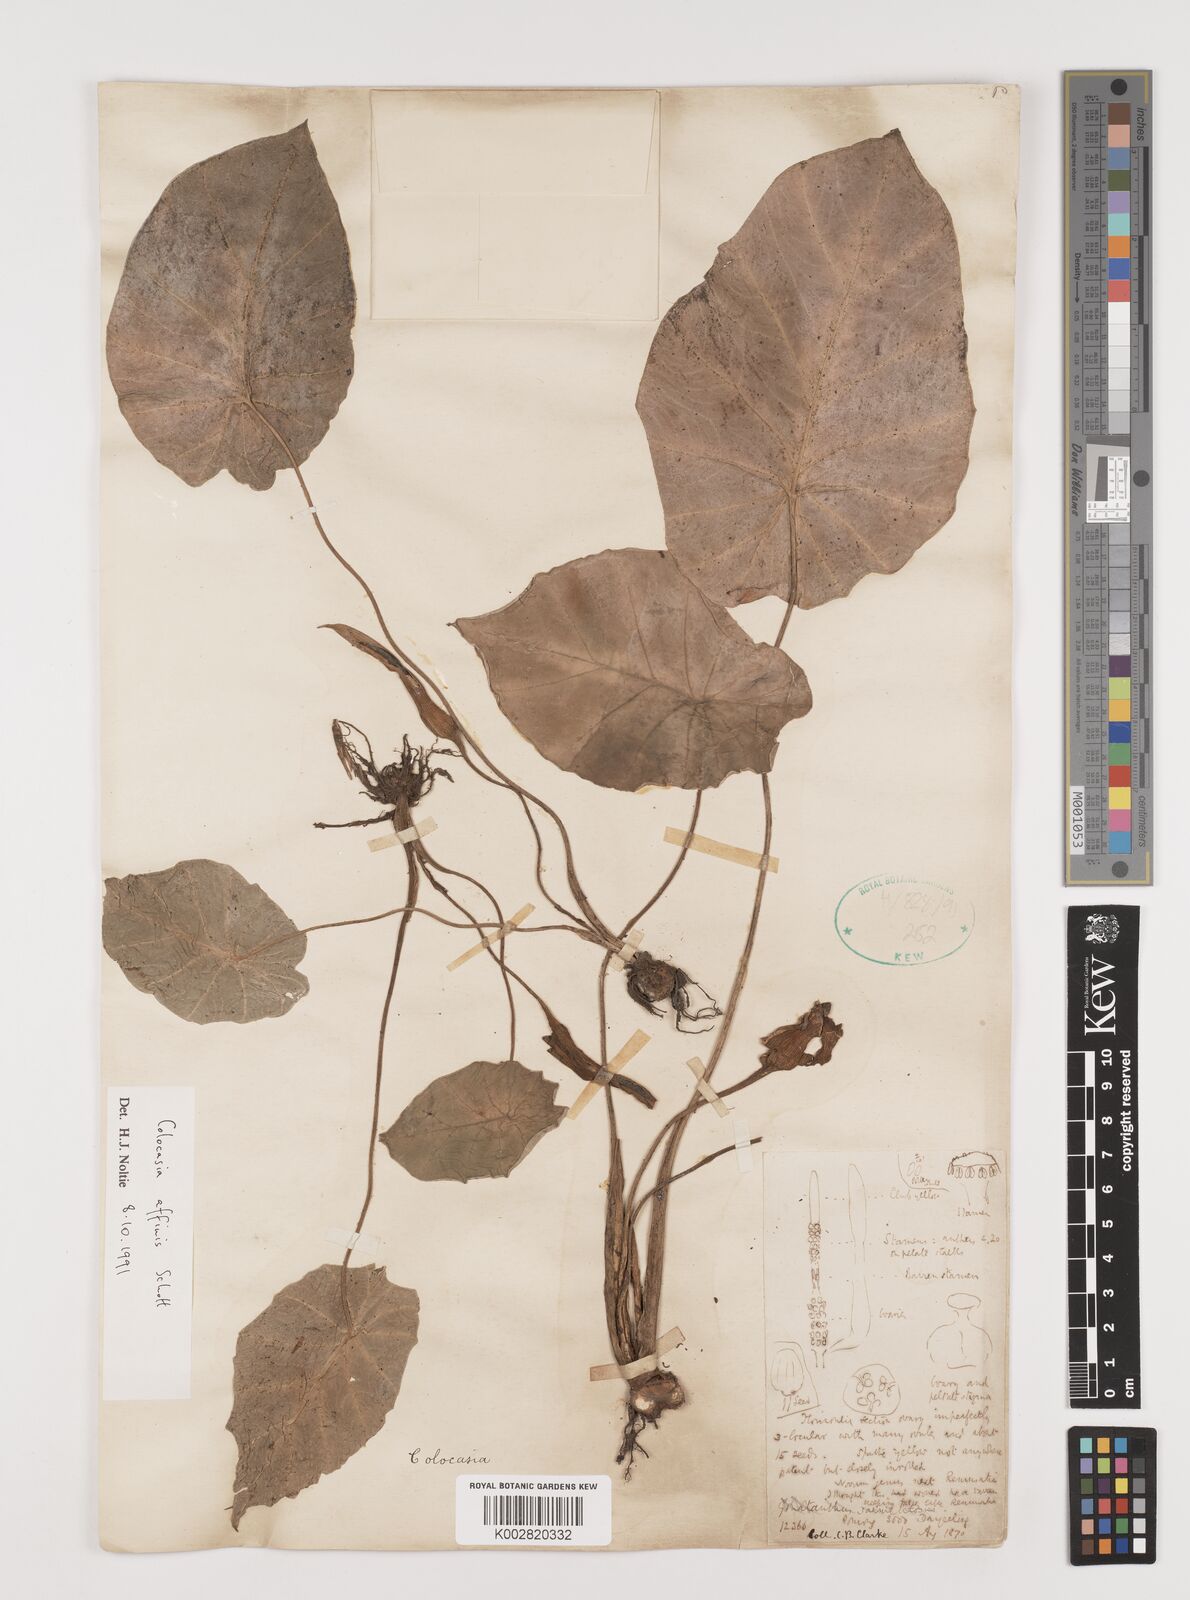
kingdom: Plantae
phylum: Tracheophyta
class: Liliopsida
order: Alismatales
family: Araceae
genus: Colocasia
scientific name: Colocasia affinis
